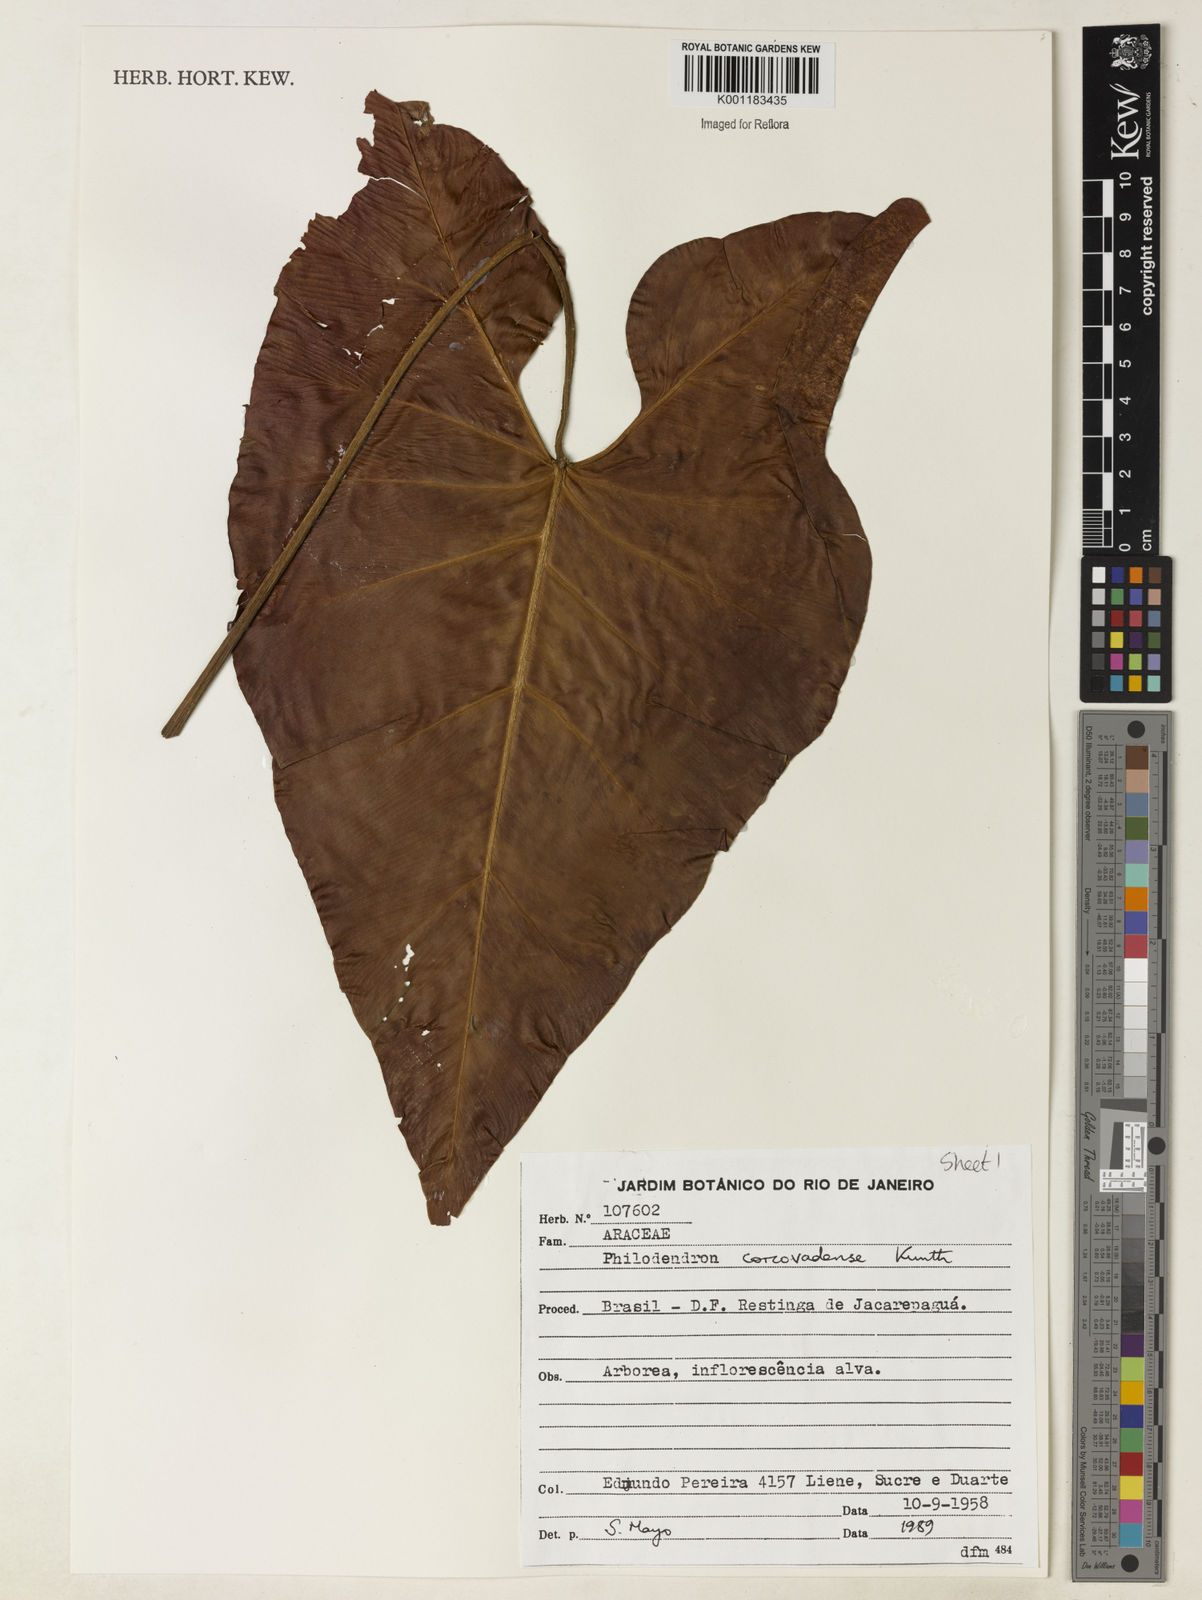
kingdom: Plantae
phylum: Tracheophyta
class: Liliopsida
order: Alismatales
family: Araceae
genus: Thaumatophyllum
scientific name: Thaumatophyllum corcovadense
